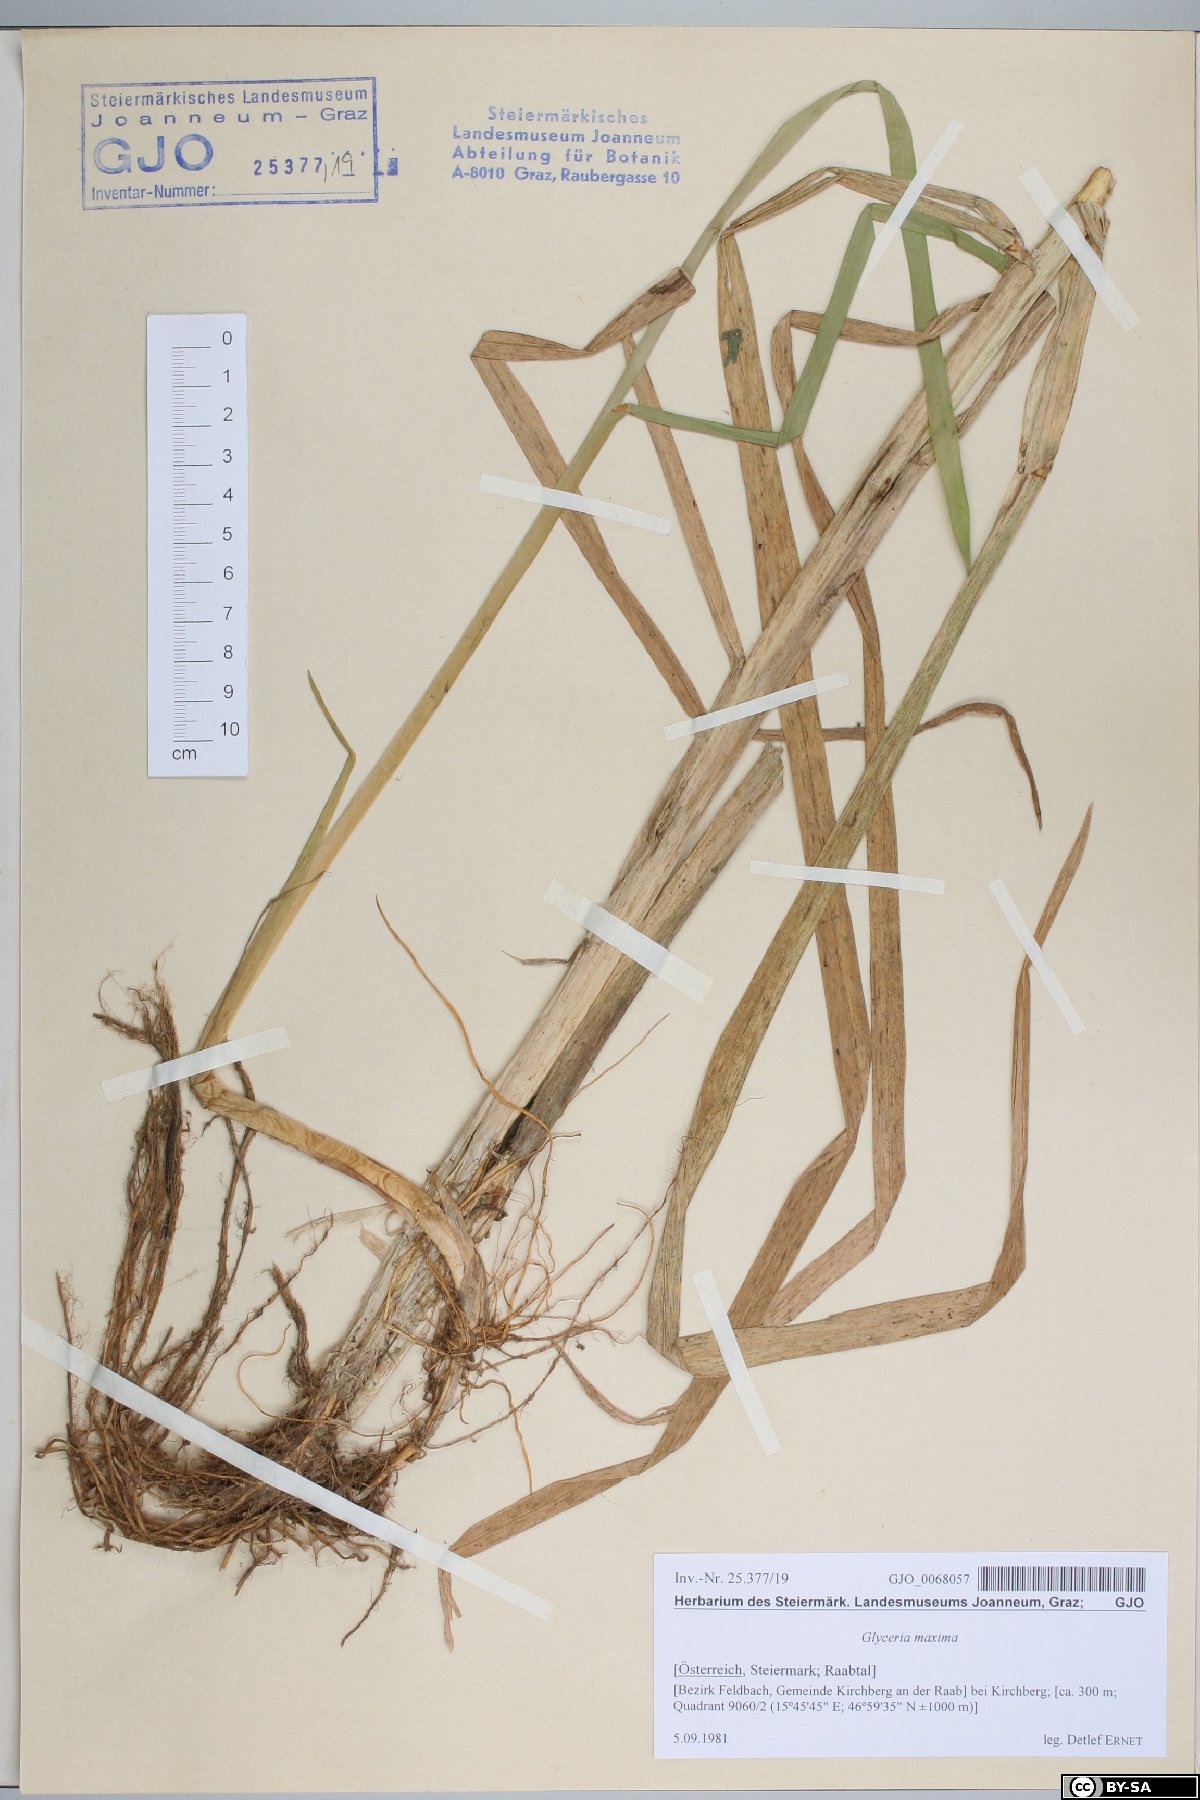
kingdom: Plantae
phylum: Tracheophyta
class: Liliopsida
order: Poales
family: Poaceae
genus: Glyceria
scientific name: Glyceria maxima
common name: Reed mannagrass
